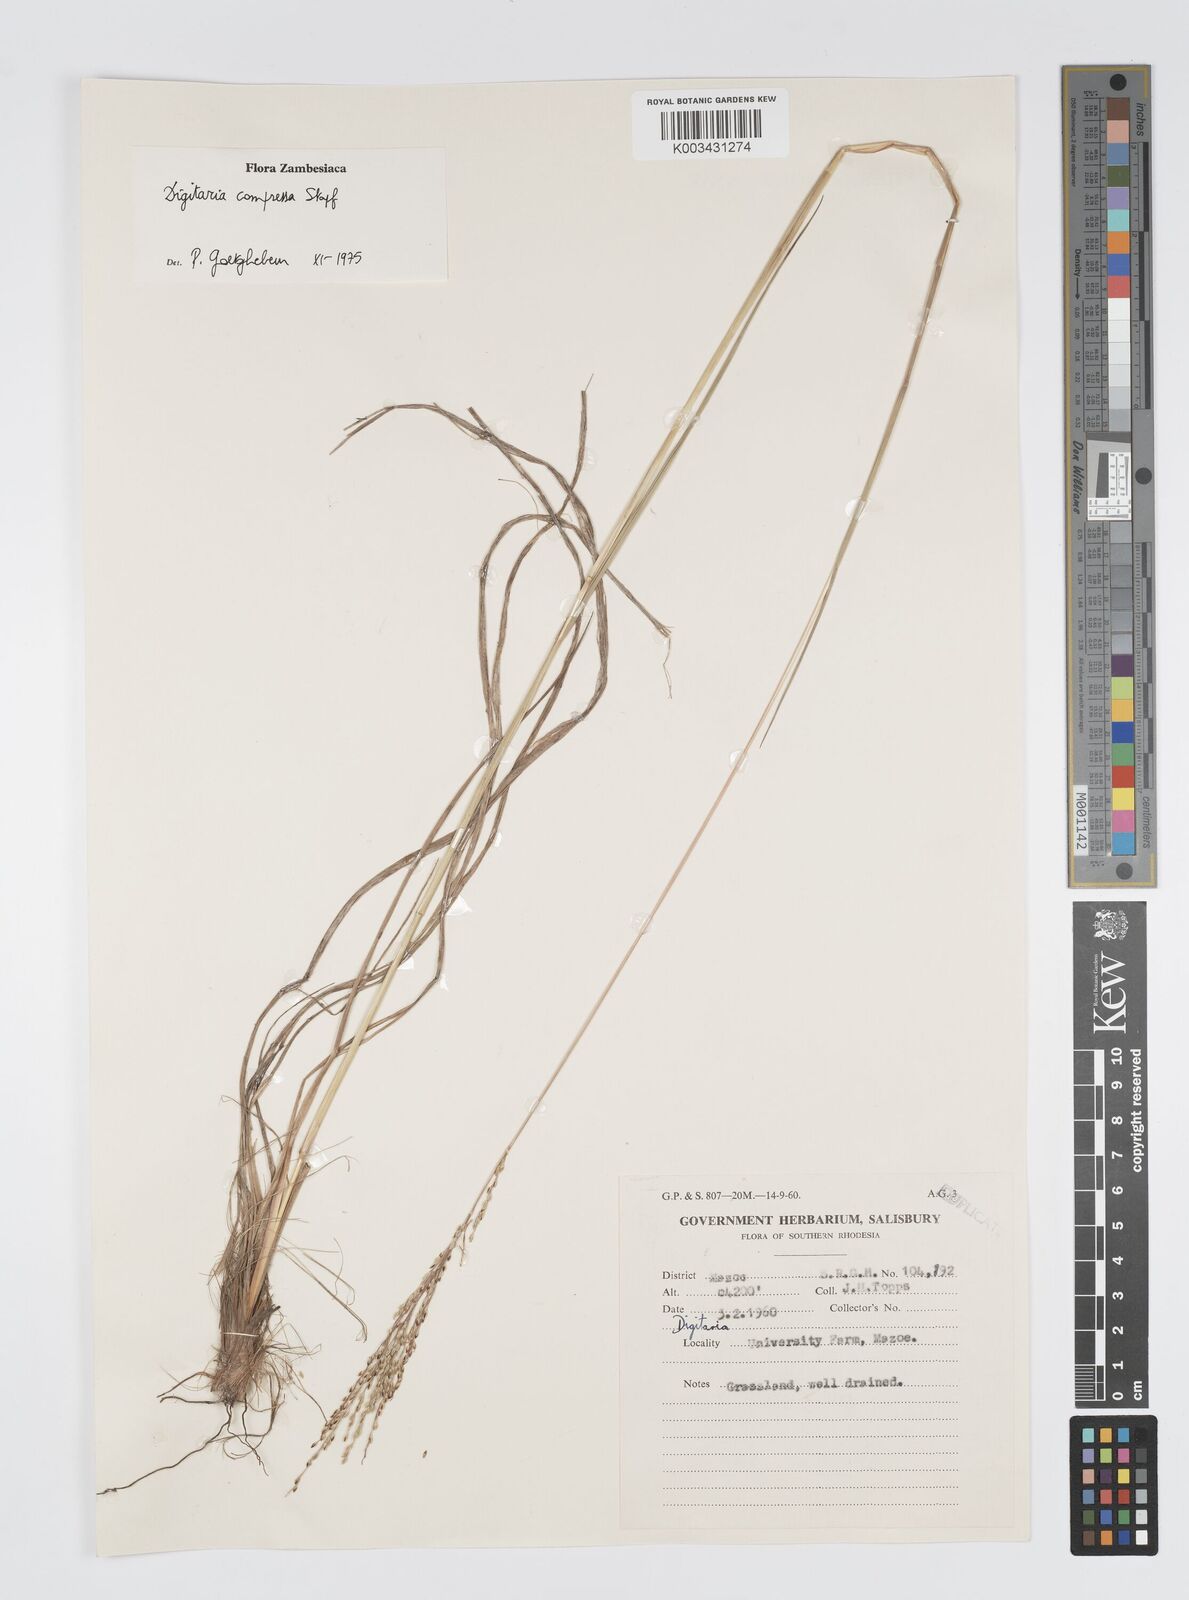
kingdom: Plantae
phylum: Tracheophyta
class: Liliopsida
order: Poales
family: Poaceae
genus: Digitaria
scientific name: Digitaria compressa
